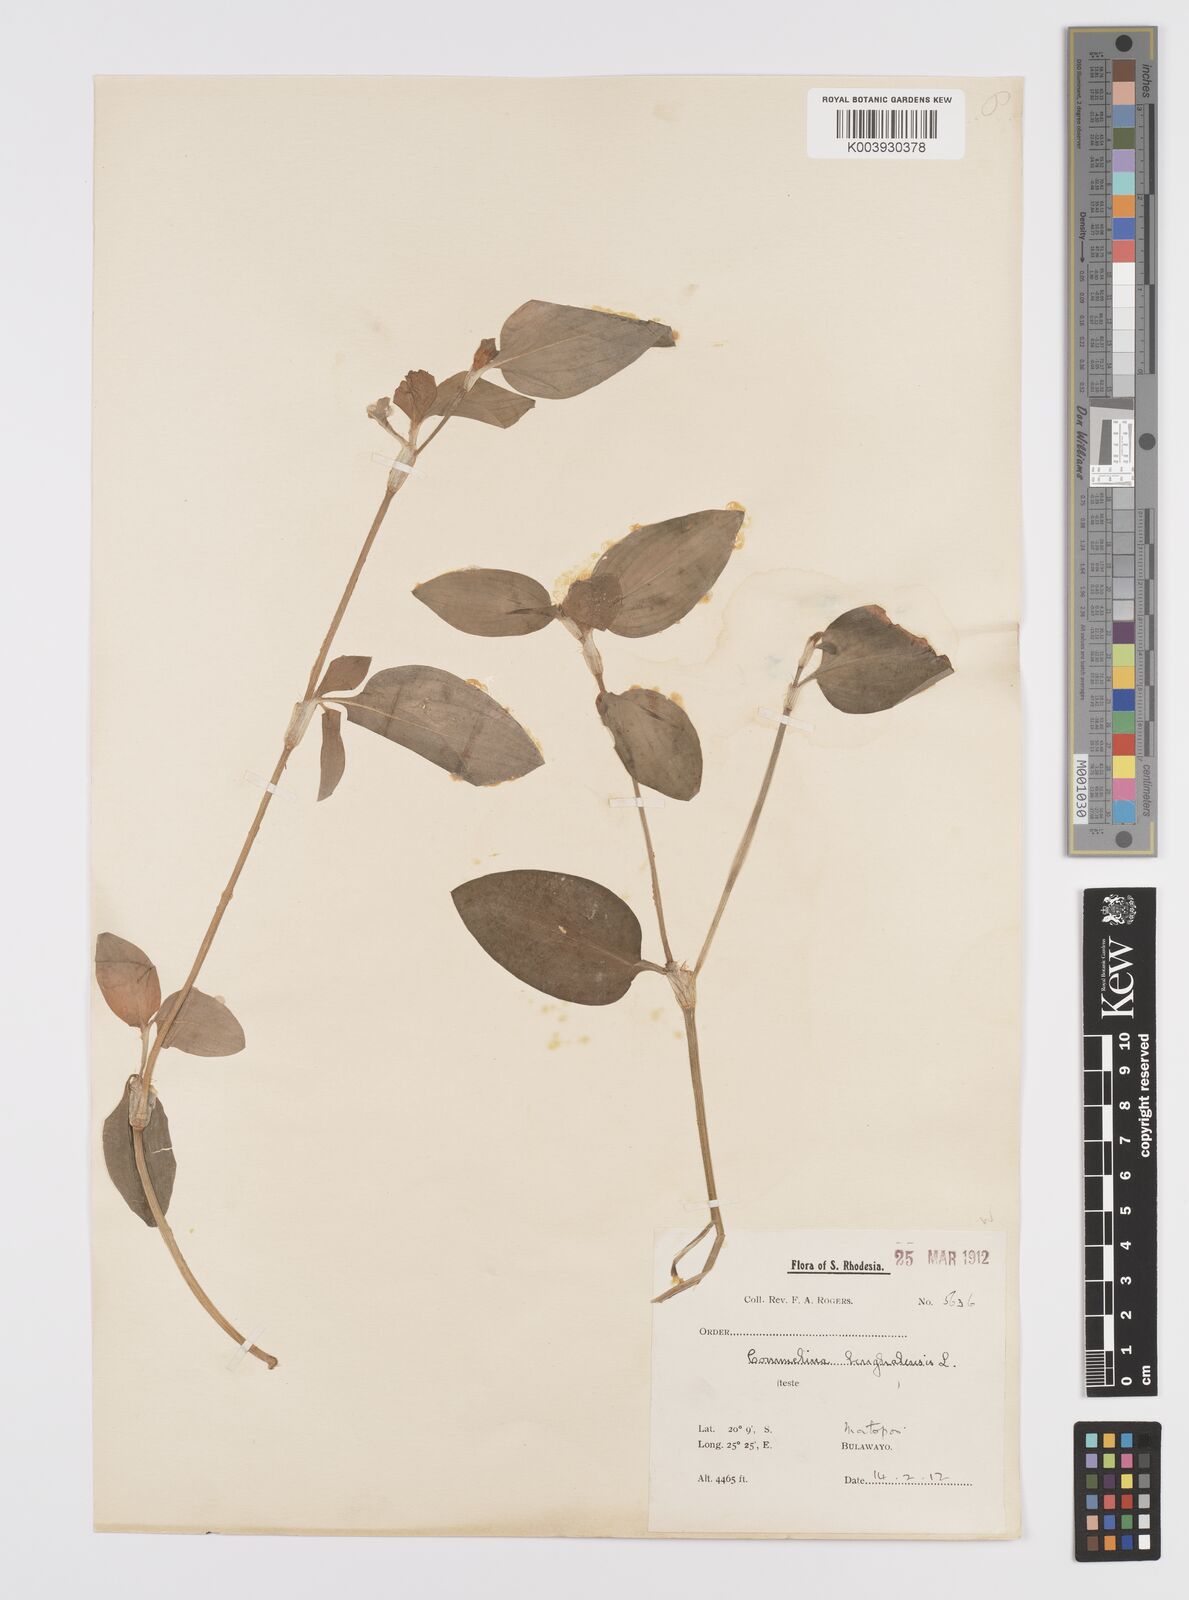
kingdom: Plantae
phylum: Tracheophyta
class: Liliopsida
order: Commelinales
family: Commelinaceae
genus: Commelina
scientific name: Commelina benghalensis
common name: Jio
